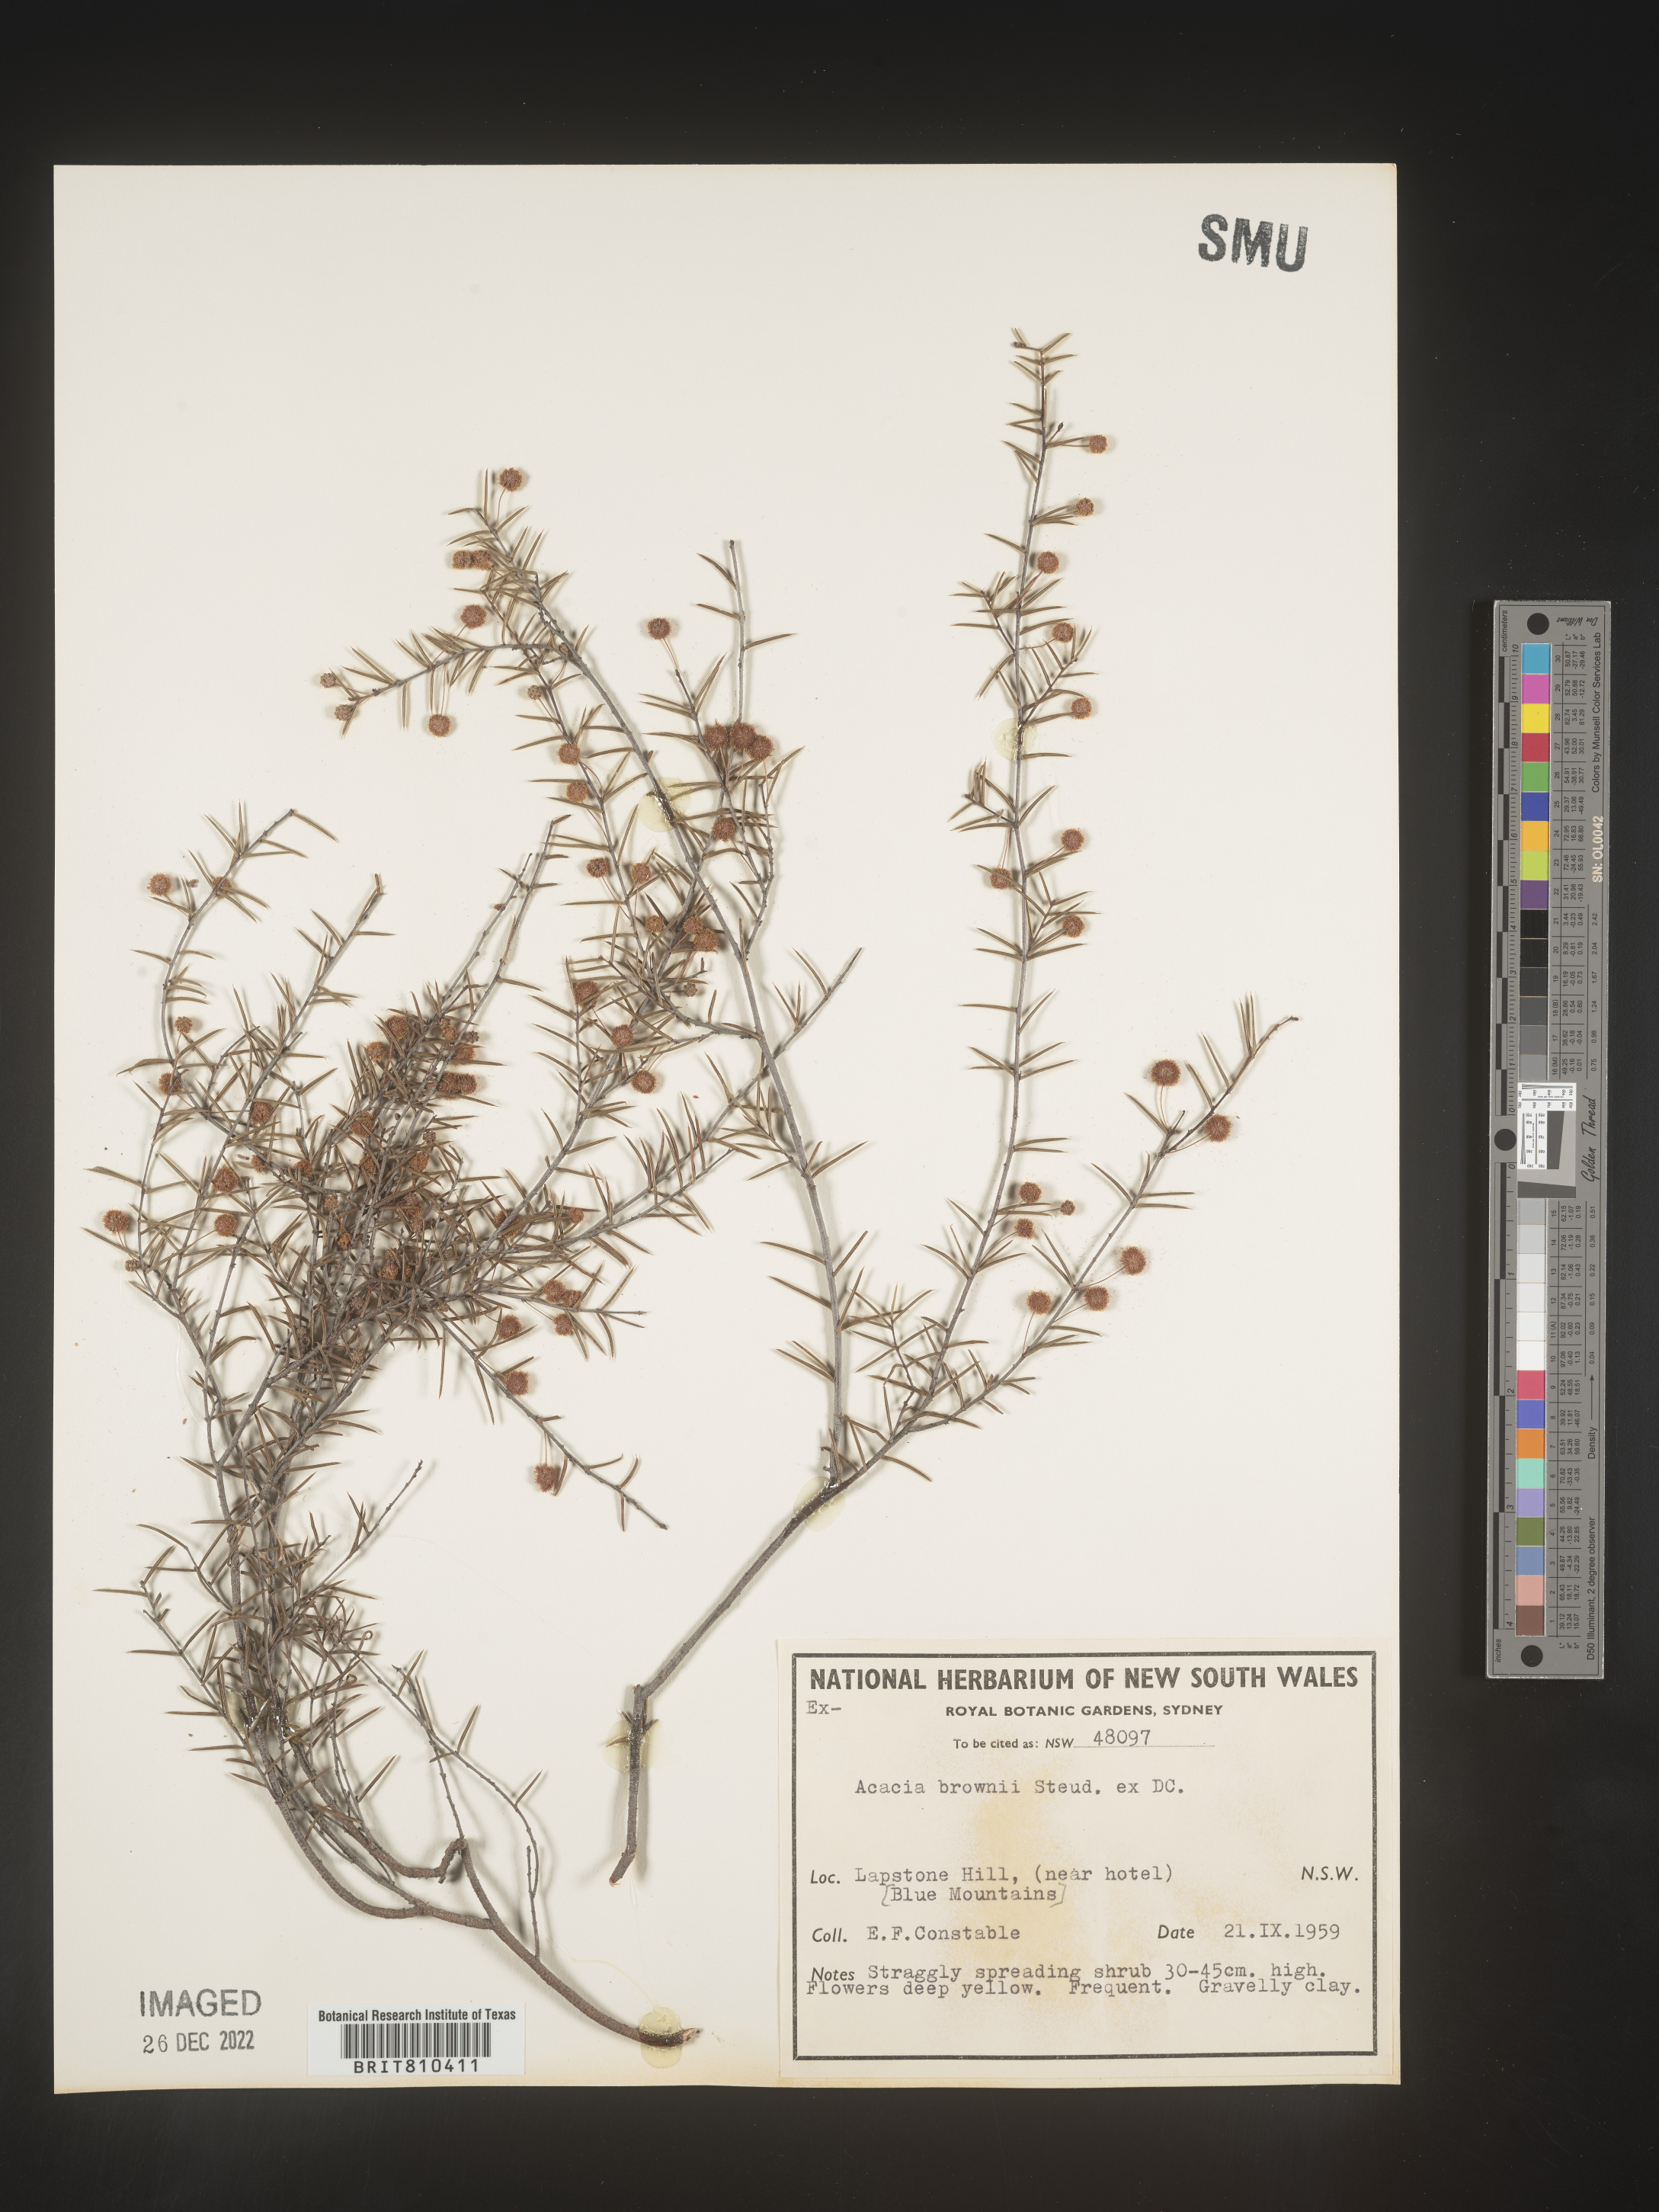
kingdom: Plantae
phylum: Tracheophyta
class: Magnoliopsida
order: Fabales
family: Fabaceae
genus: Acacia
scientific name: Acacia
